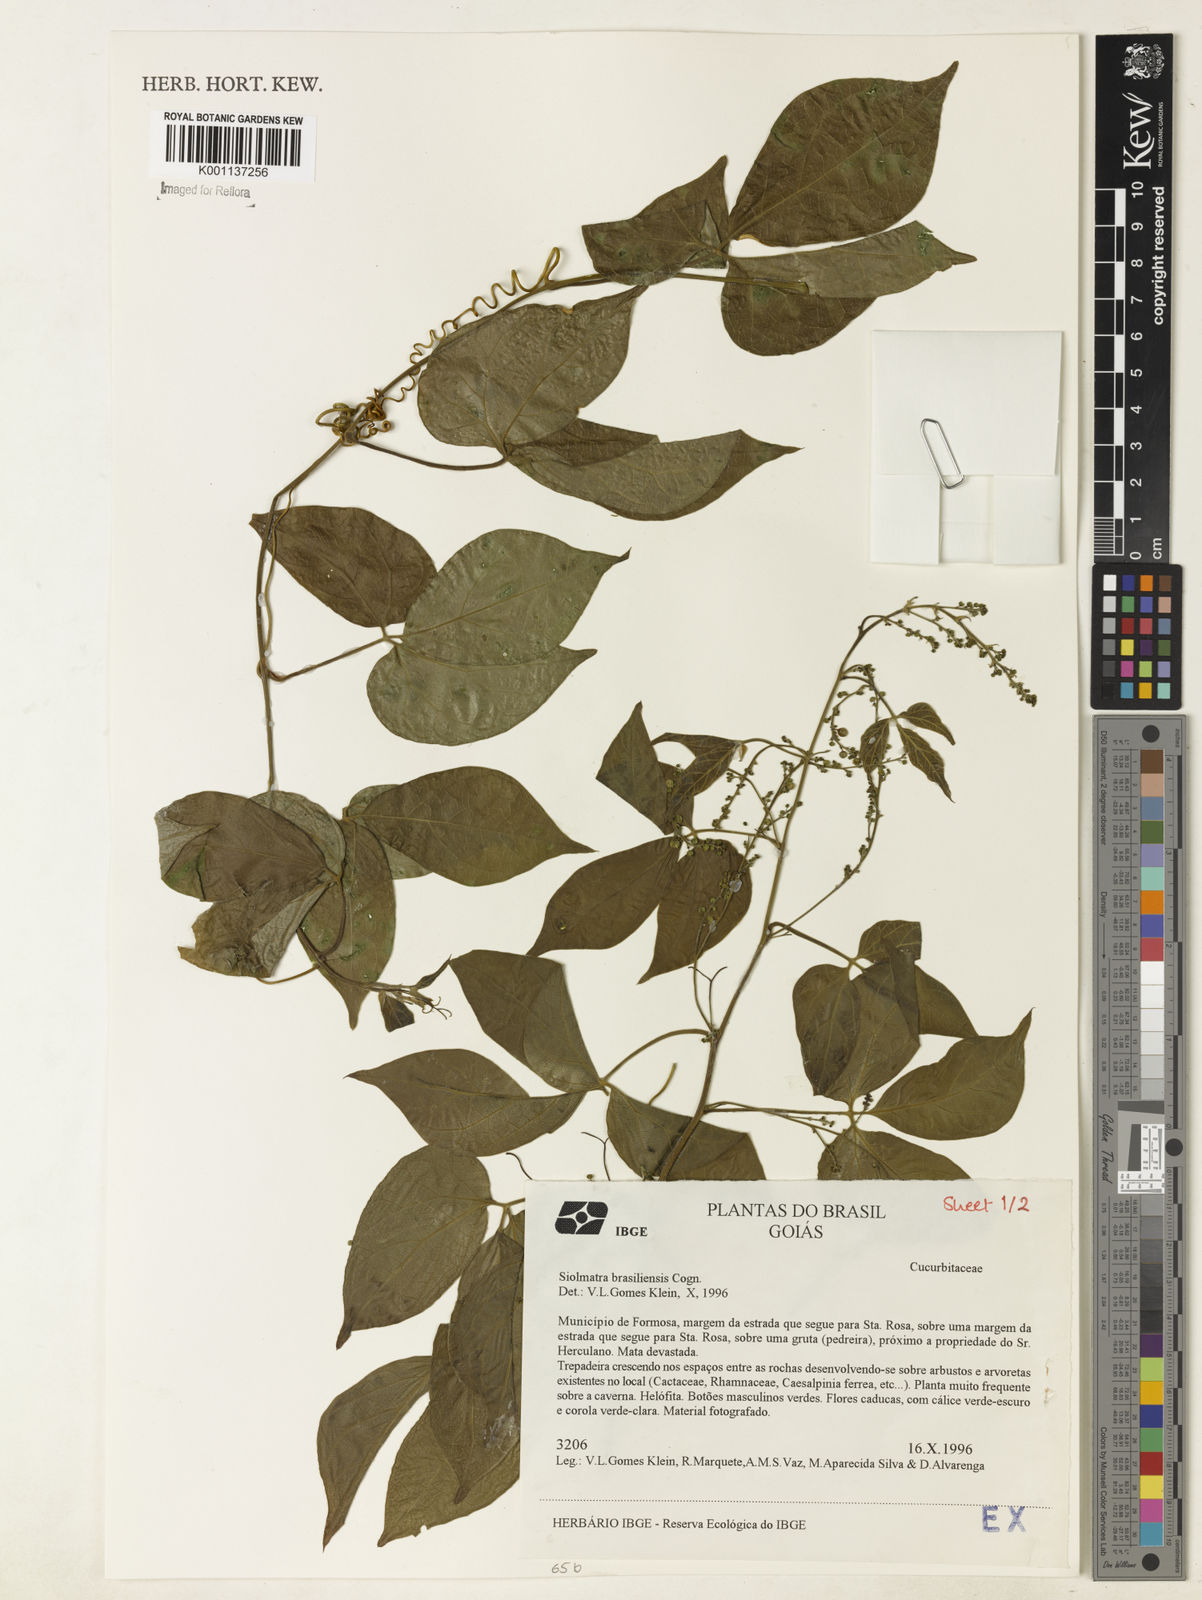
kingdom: Plantae
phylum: Tracheophyta
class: Magnoliopsida
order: Cucurbitales
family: Cucurbitaceae
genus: Siolmatra
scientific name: Siolmatra brasiliensis
